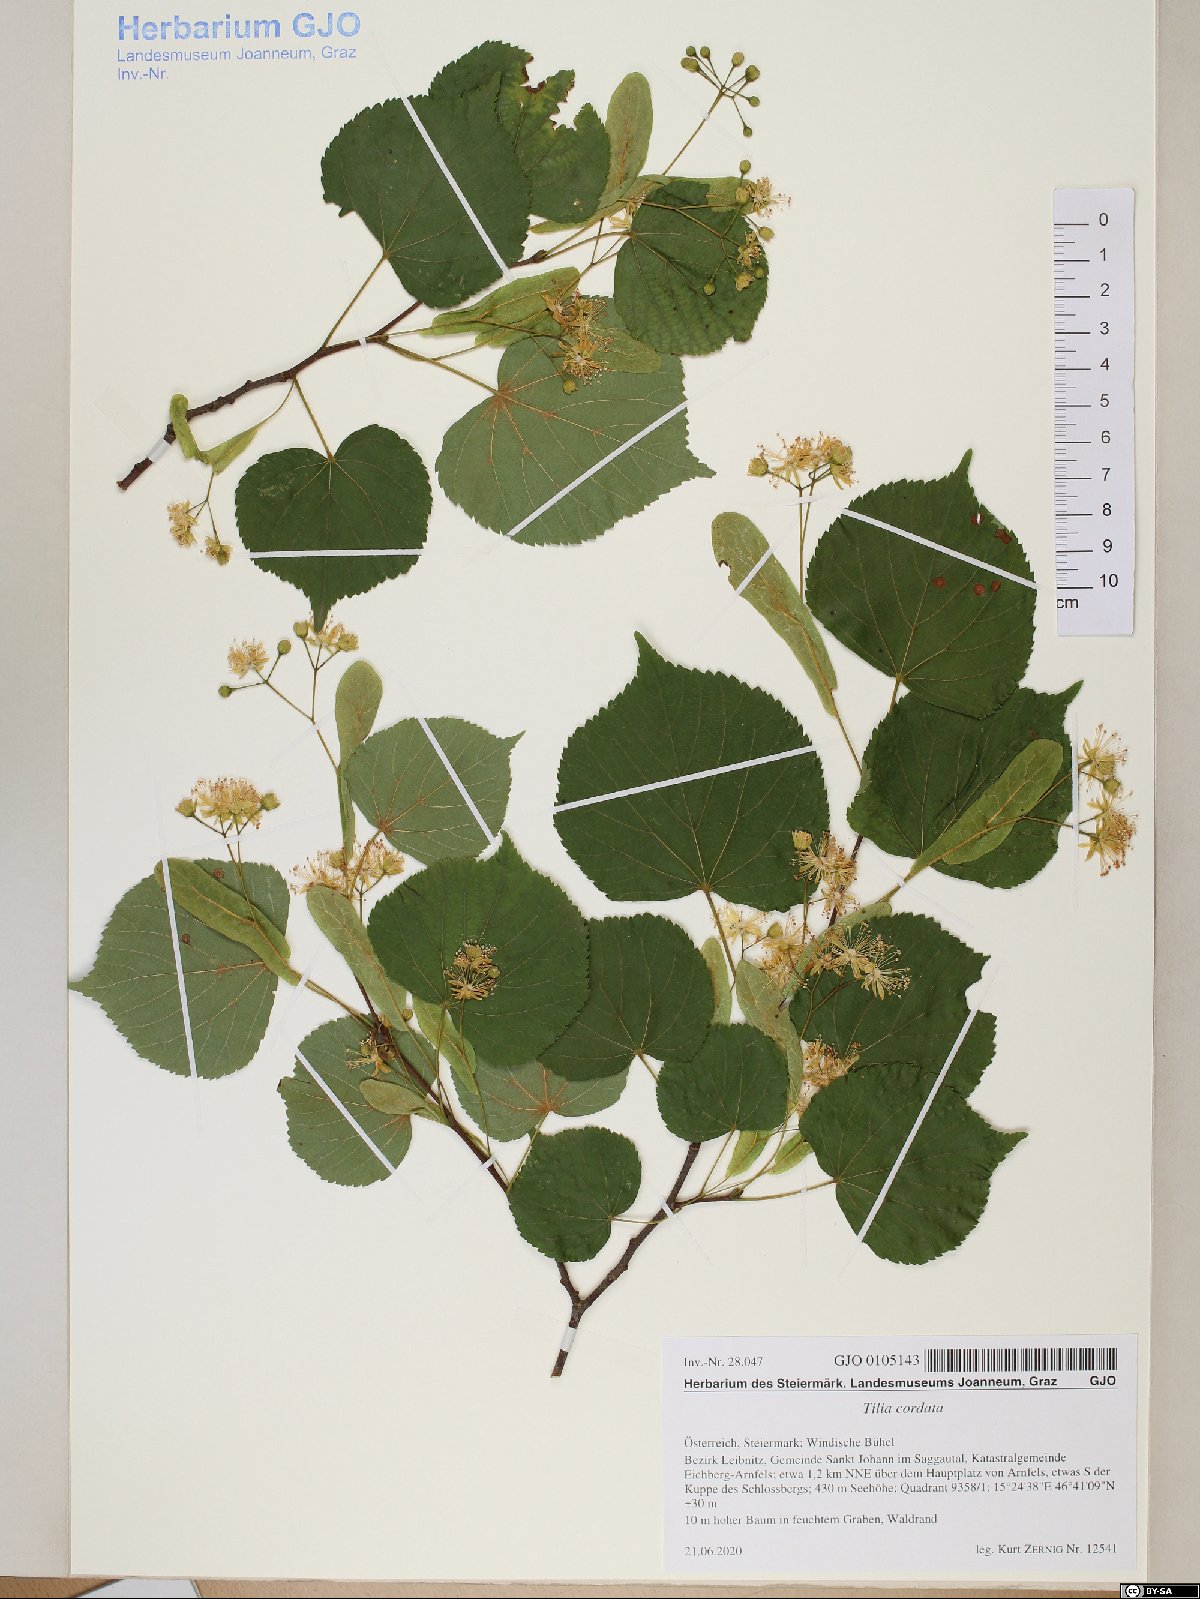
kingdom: Plantae
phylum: Tracheophyta
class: Magnoliopsida
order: Malvales
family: Malvaceae
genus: Tilia
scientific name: Tilia cordata
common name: Small-leaved lime
